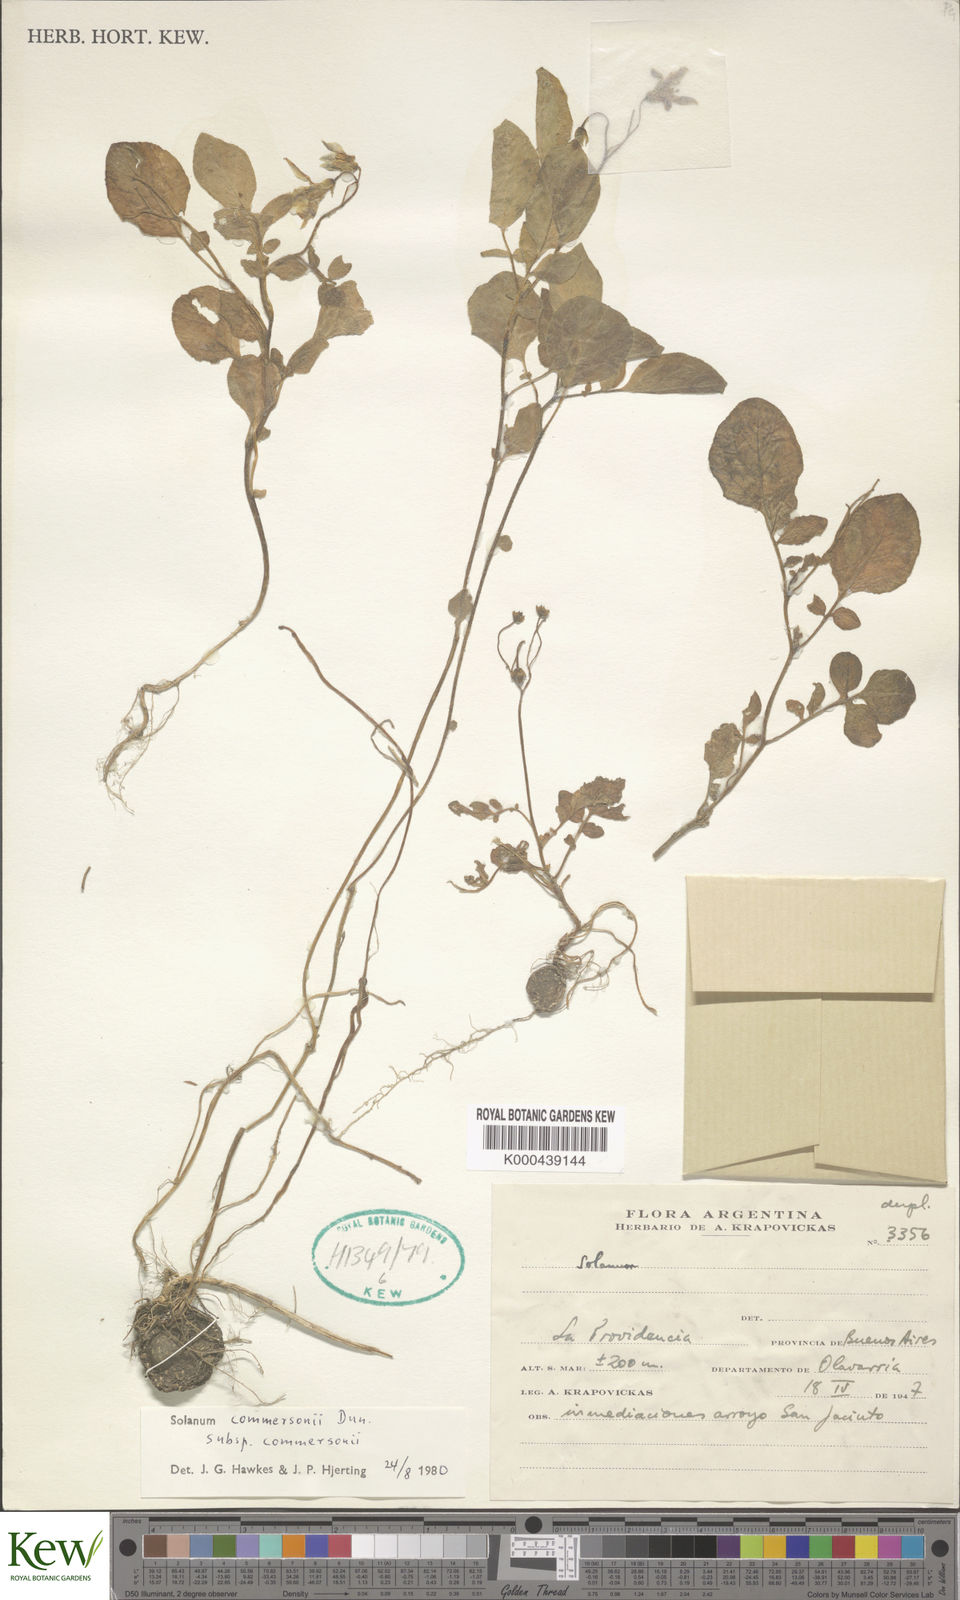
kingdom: Plantae
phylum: Tracheophyta
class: Magnoliopsida
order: Solanales
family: Solanaceae
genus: Solanum
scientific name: Solanum commersonii
